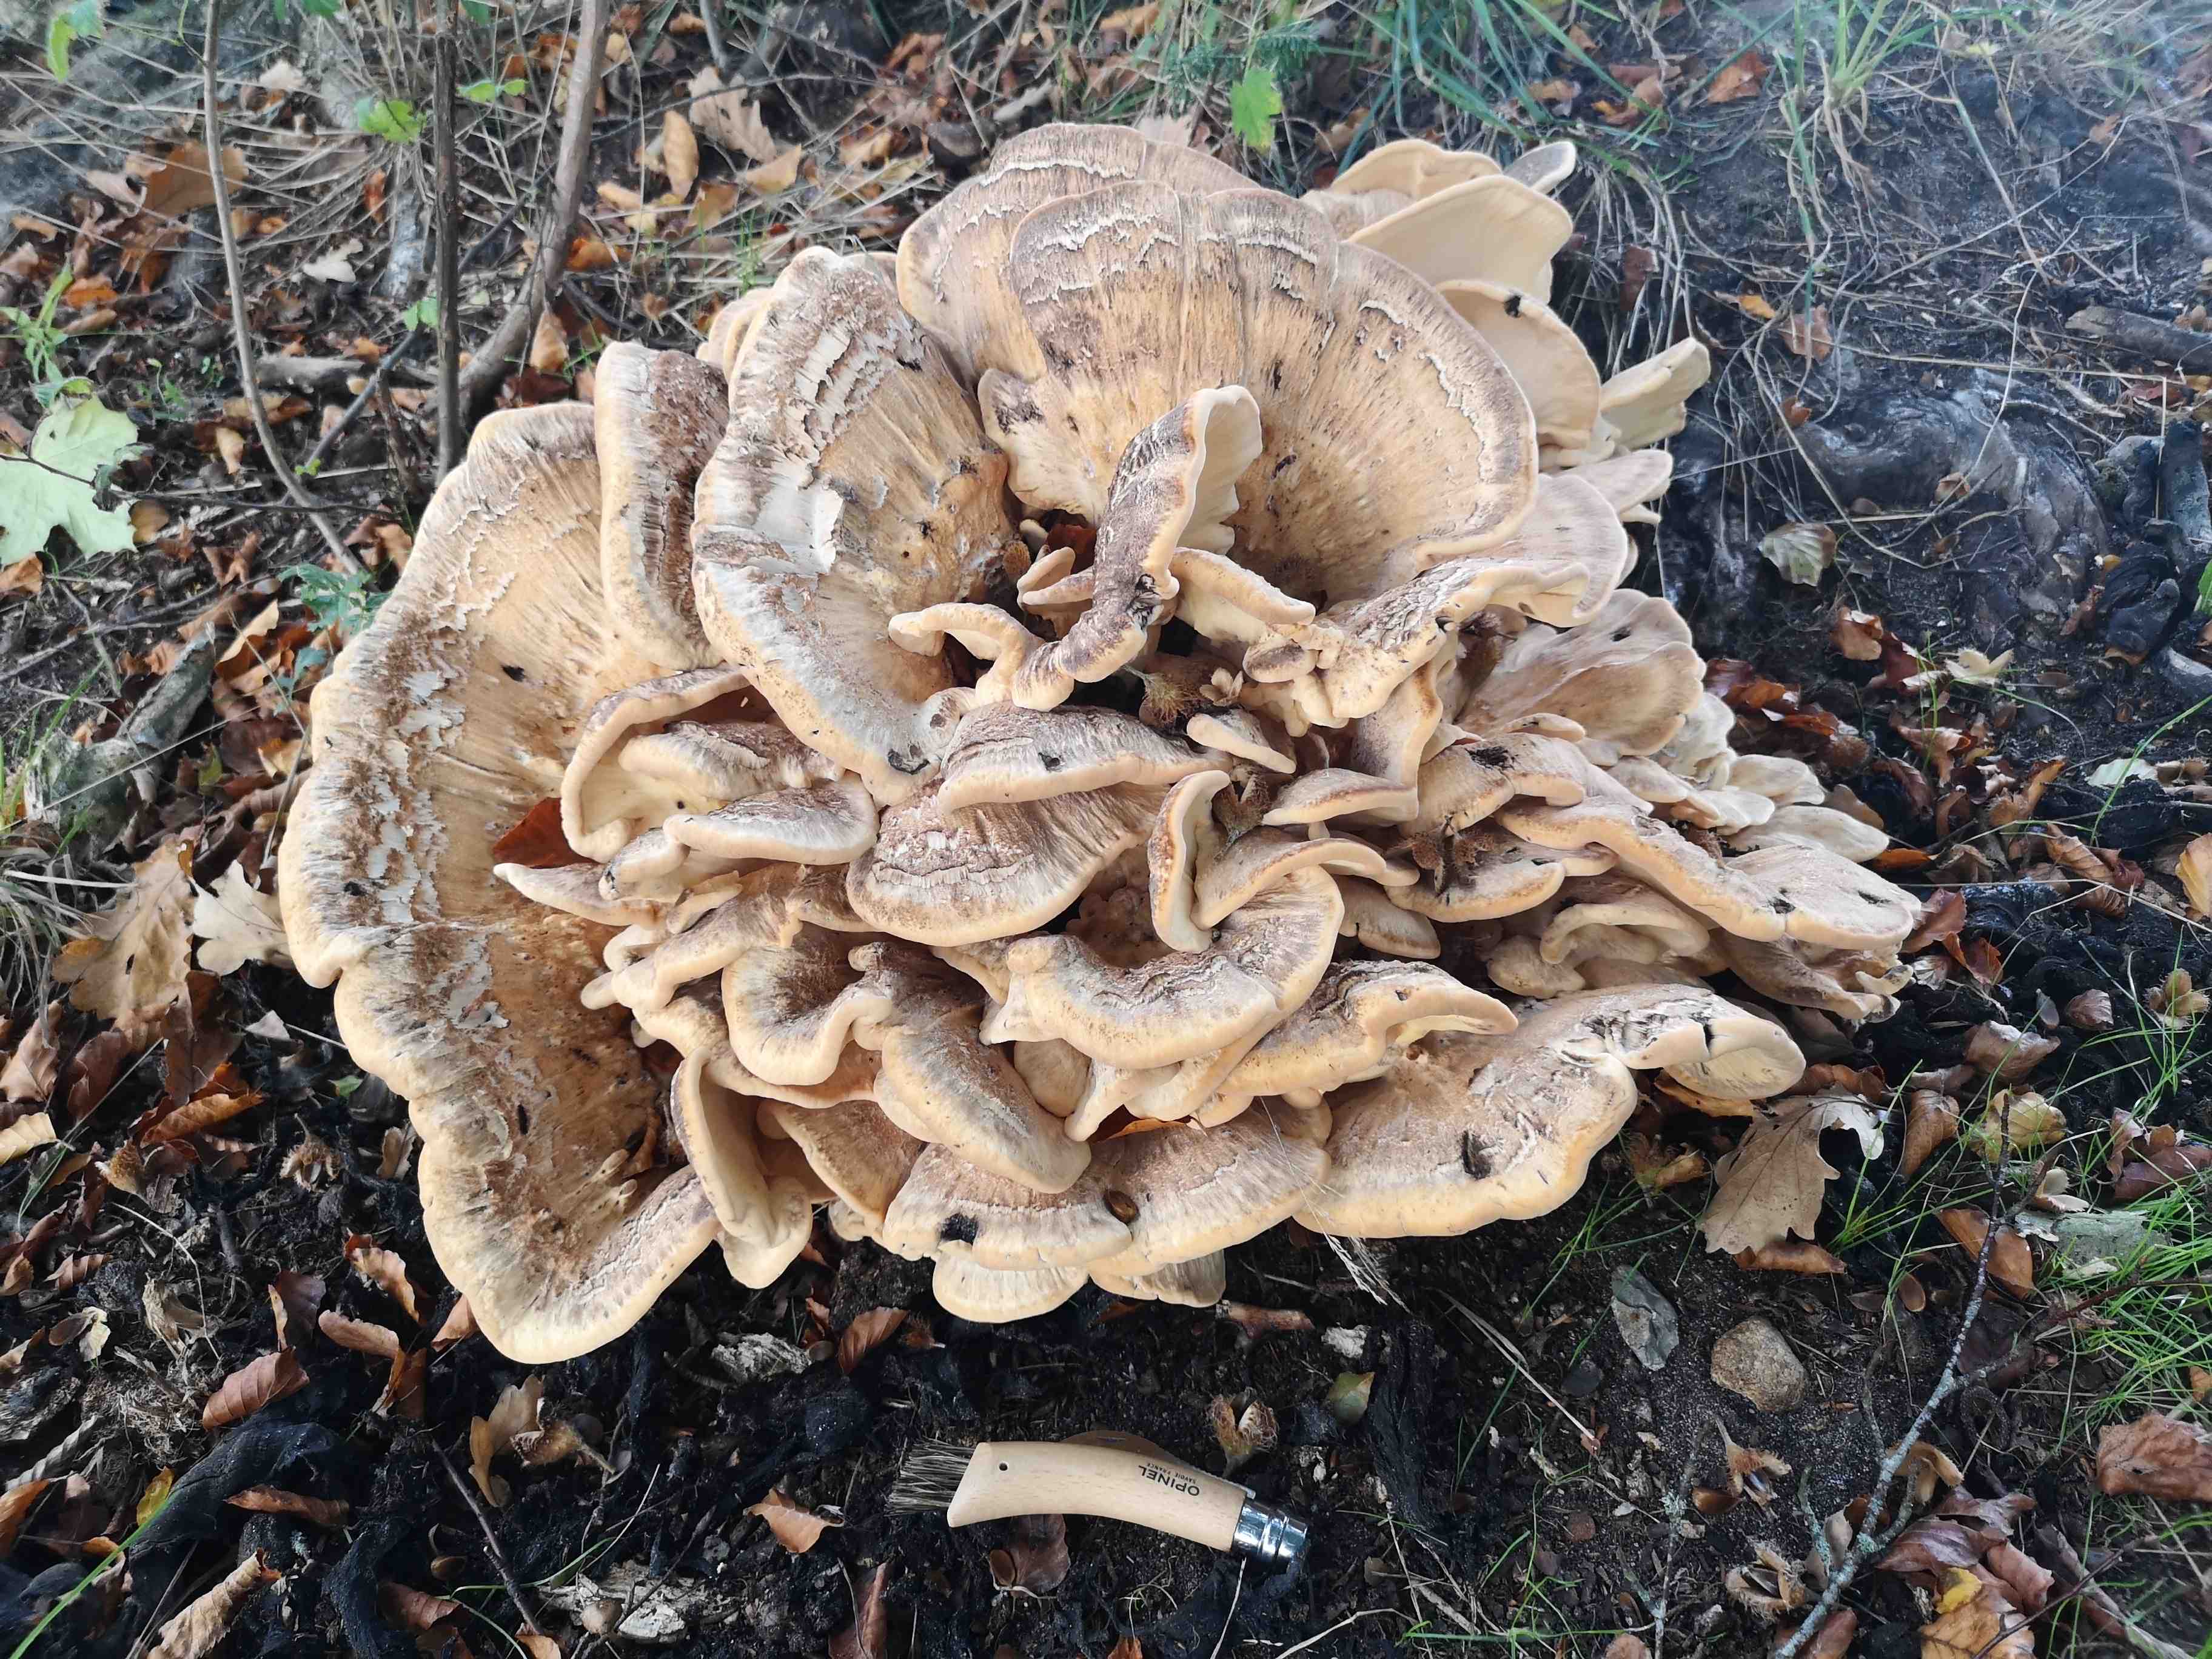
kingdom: Fungi
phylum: Basidiomycota
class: Agaricomycetes
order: Polyporales
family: Meripilaceae
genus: Meripilus
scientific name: Meripilus giganteus
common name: kæmpeporesvamp
